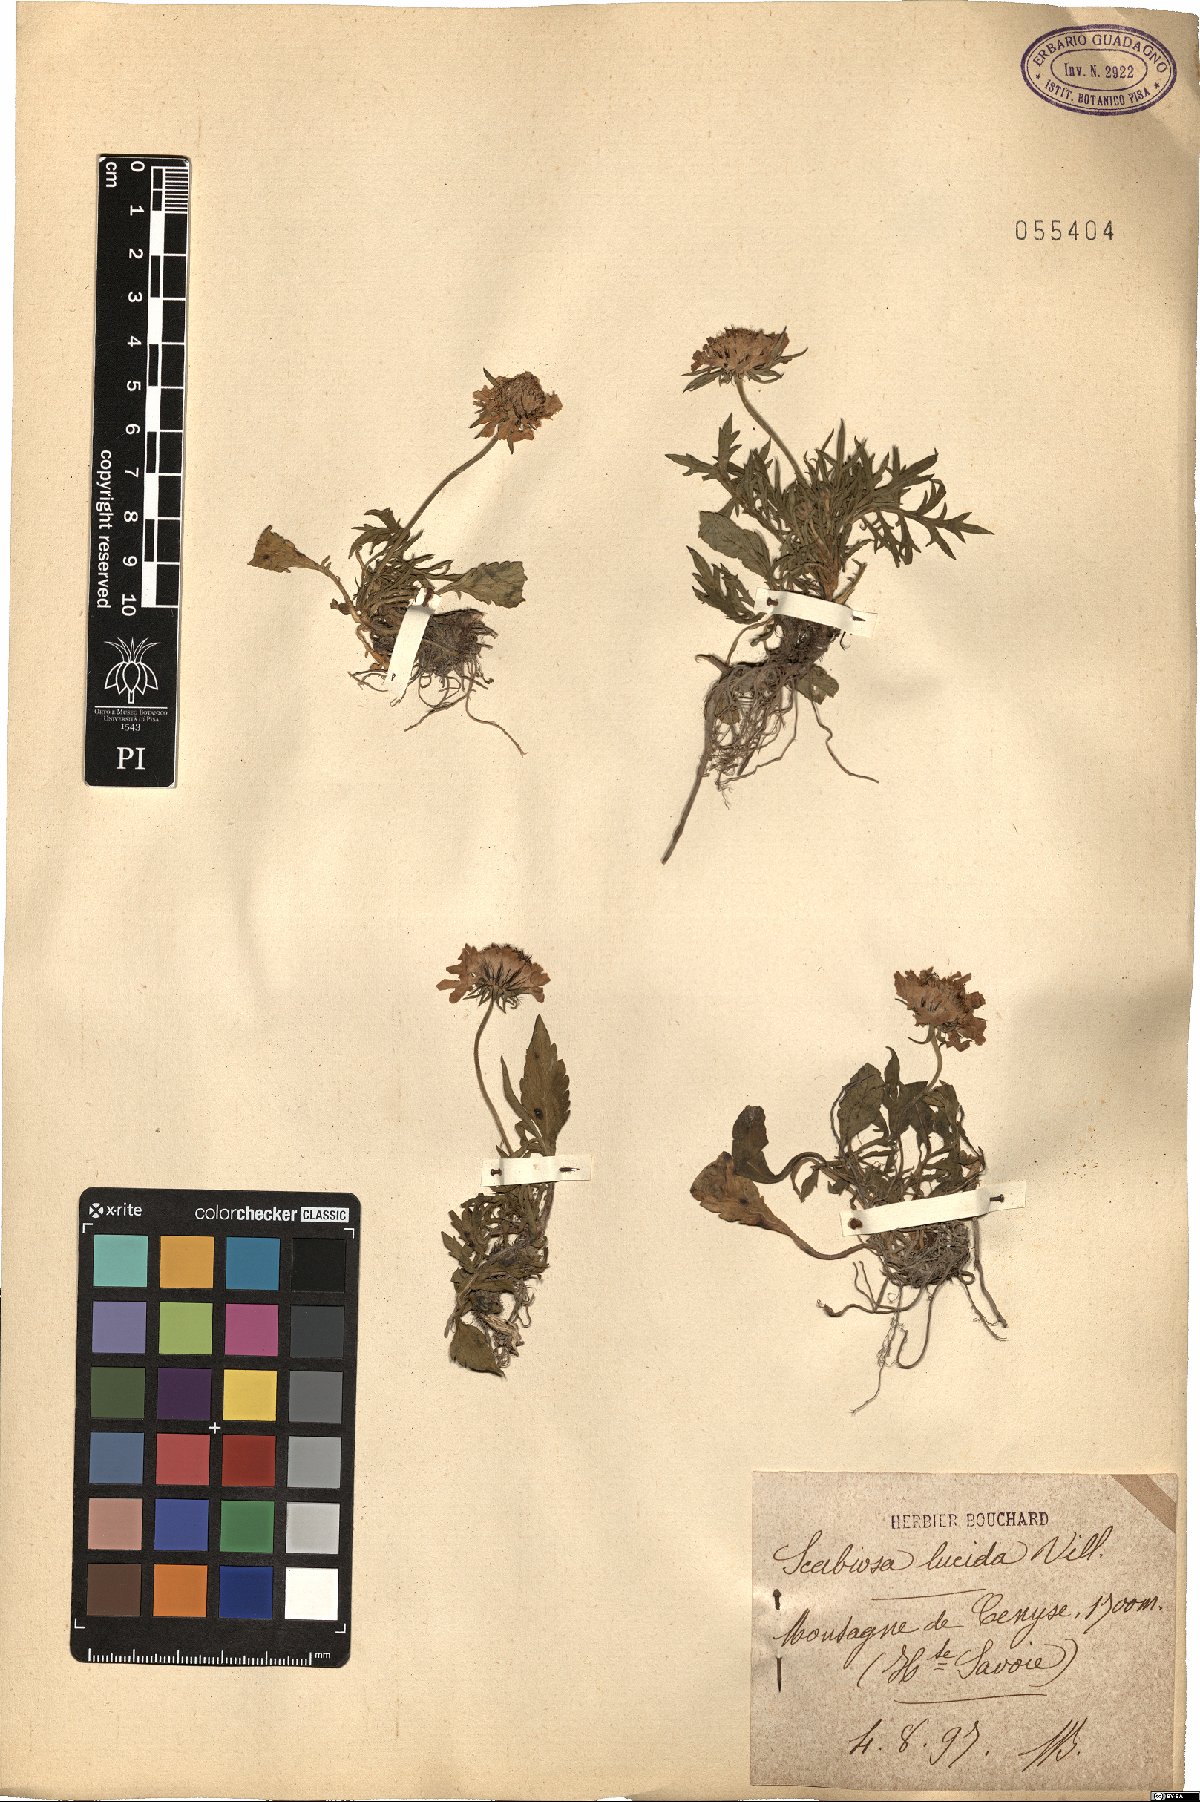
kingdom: Plantae
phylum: Tracheophyta
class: Magnoliopsida
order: Dipsacales
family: Caprifoliaceae
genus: Scabiosa
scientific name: Scabiosa lucida
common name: Shining scabious
